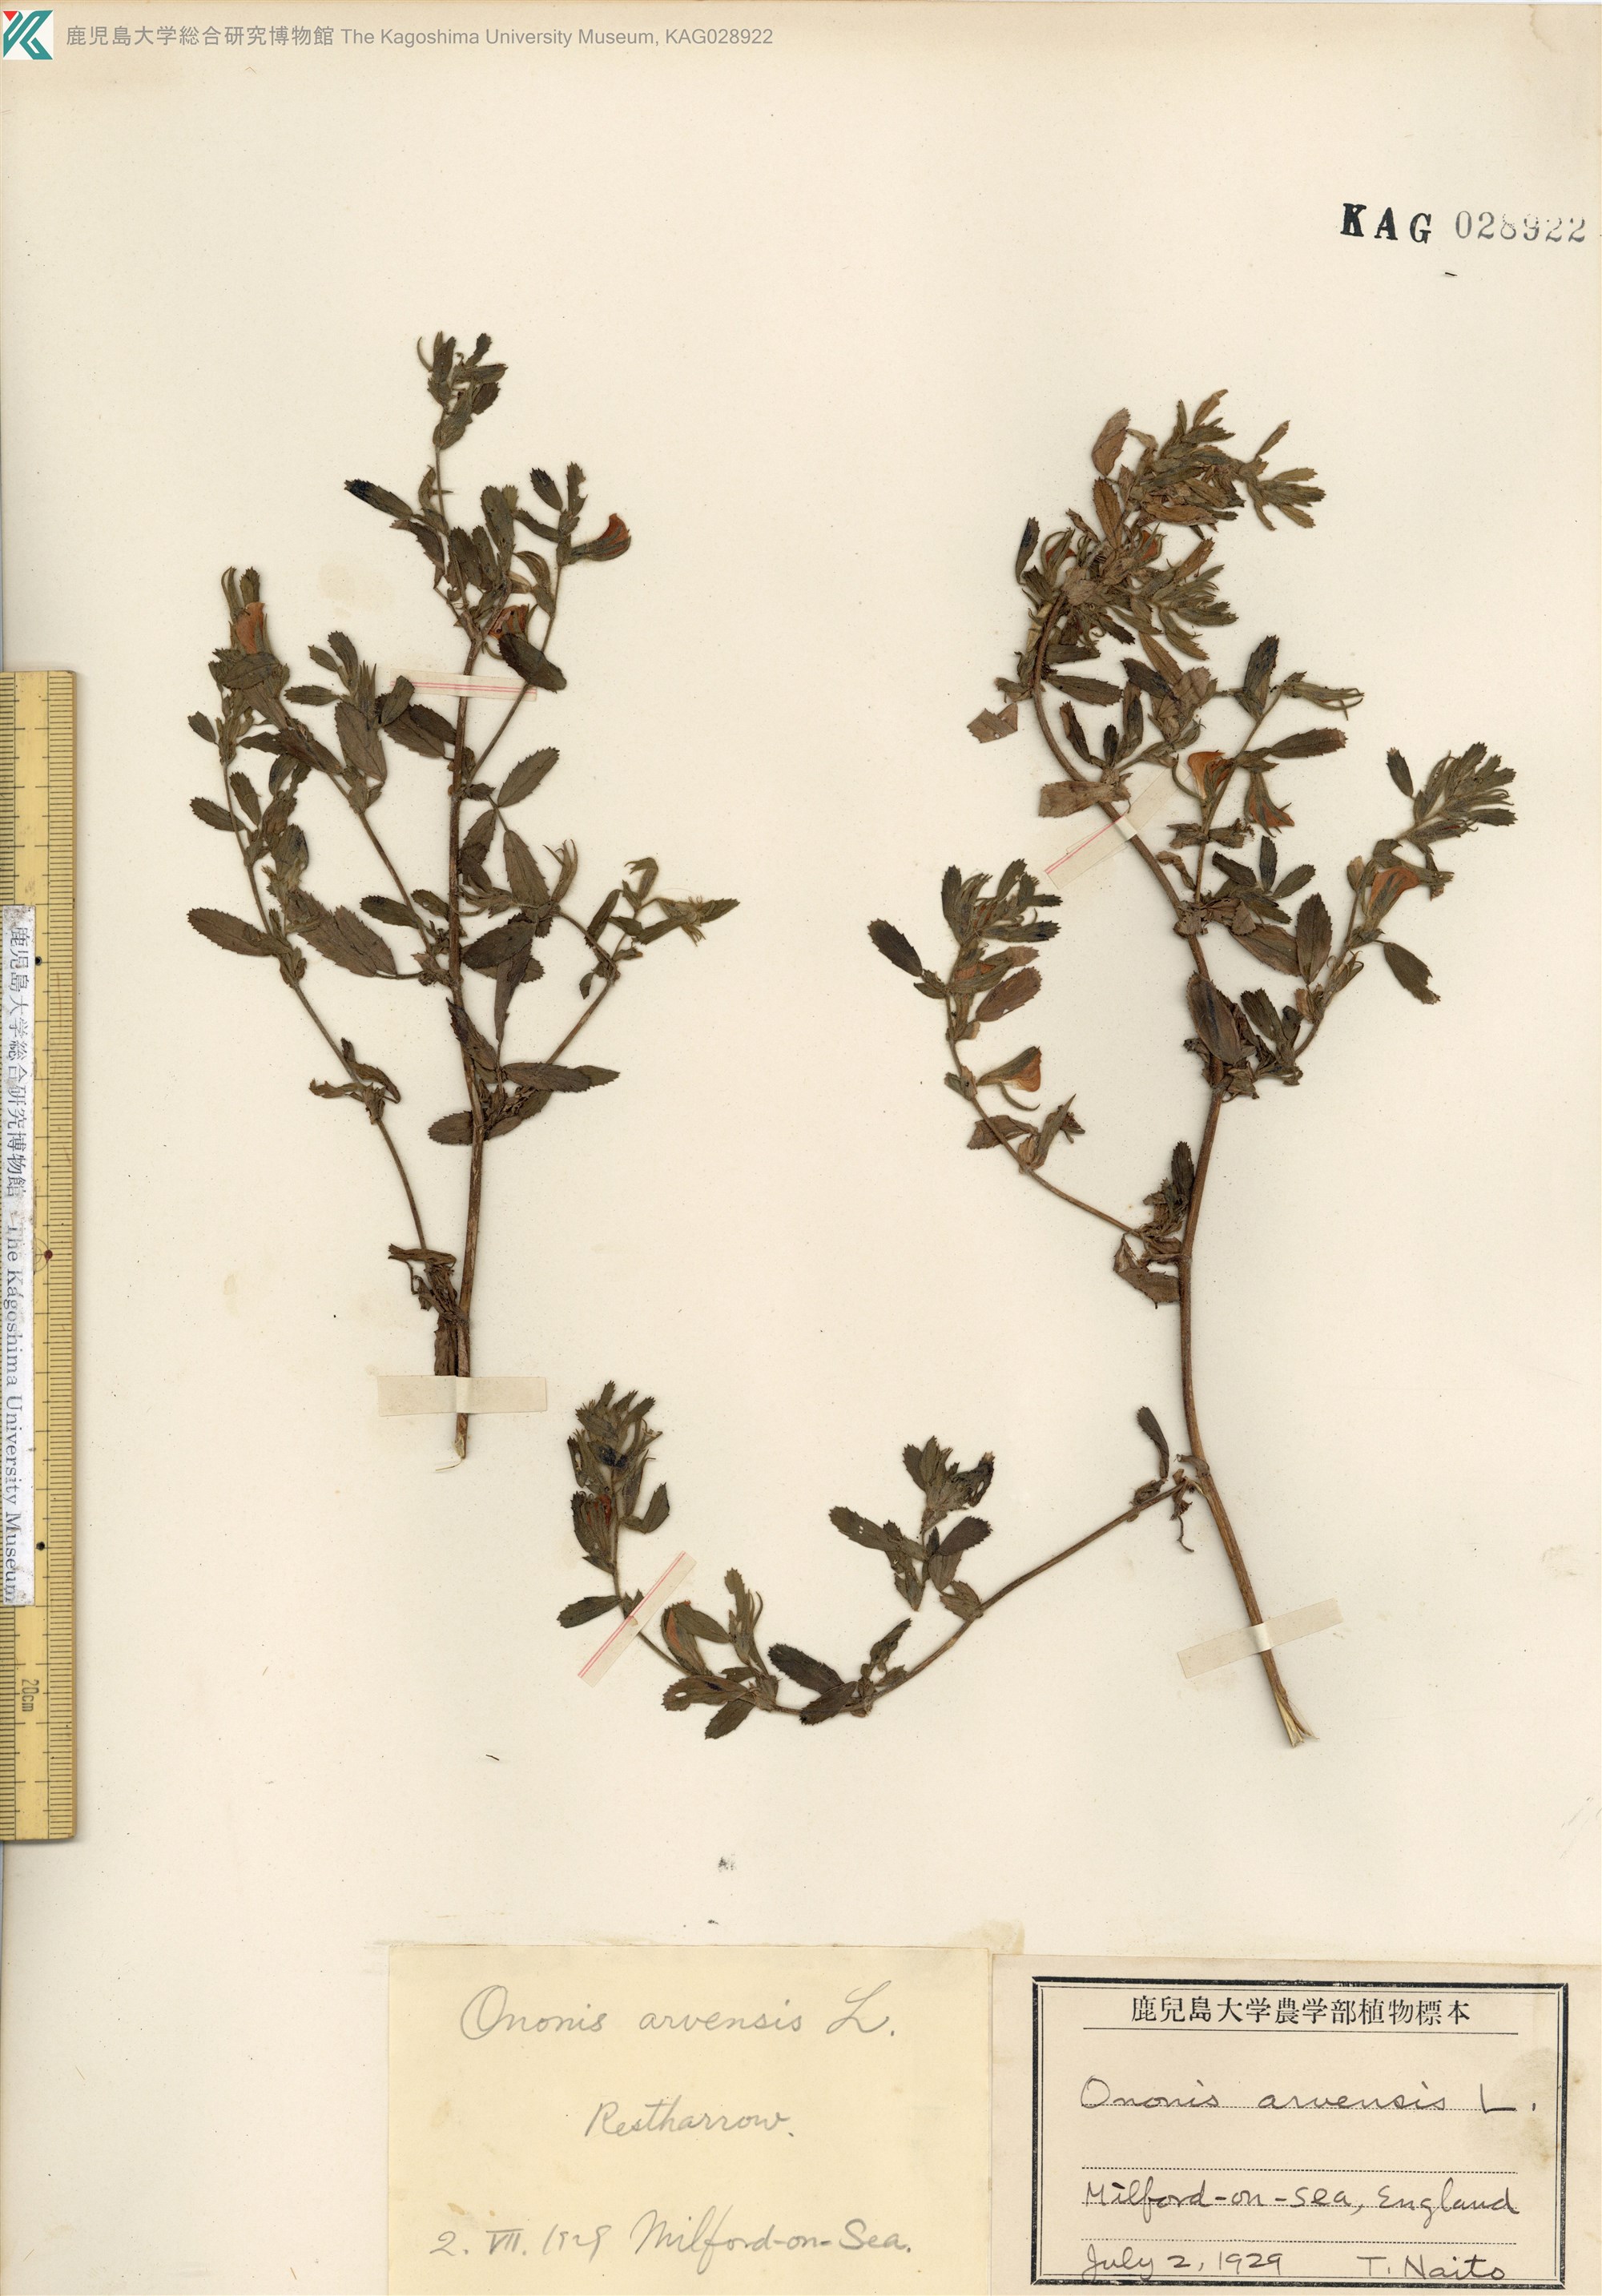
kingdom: Plantae
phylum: Tracheophyta
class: Magnoliopsida
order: Fabales
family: Fabaceae
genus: Ononis
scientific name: Ononis arvensis
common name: Field restharrow
